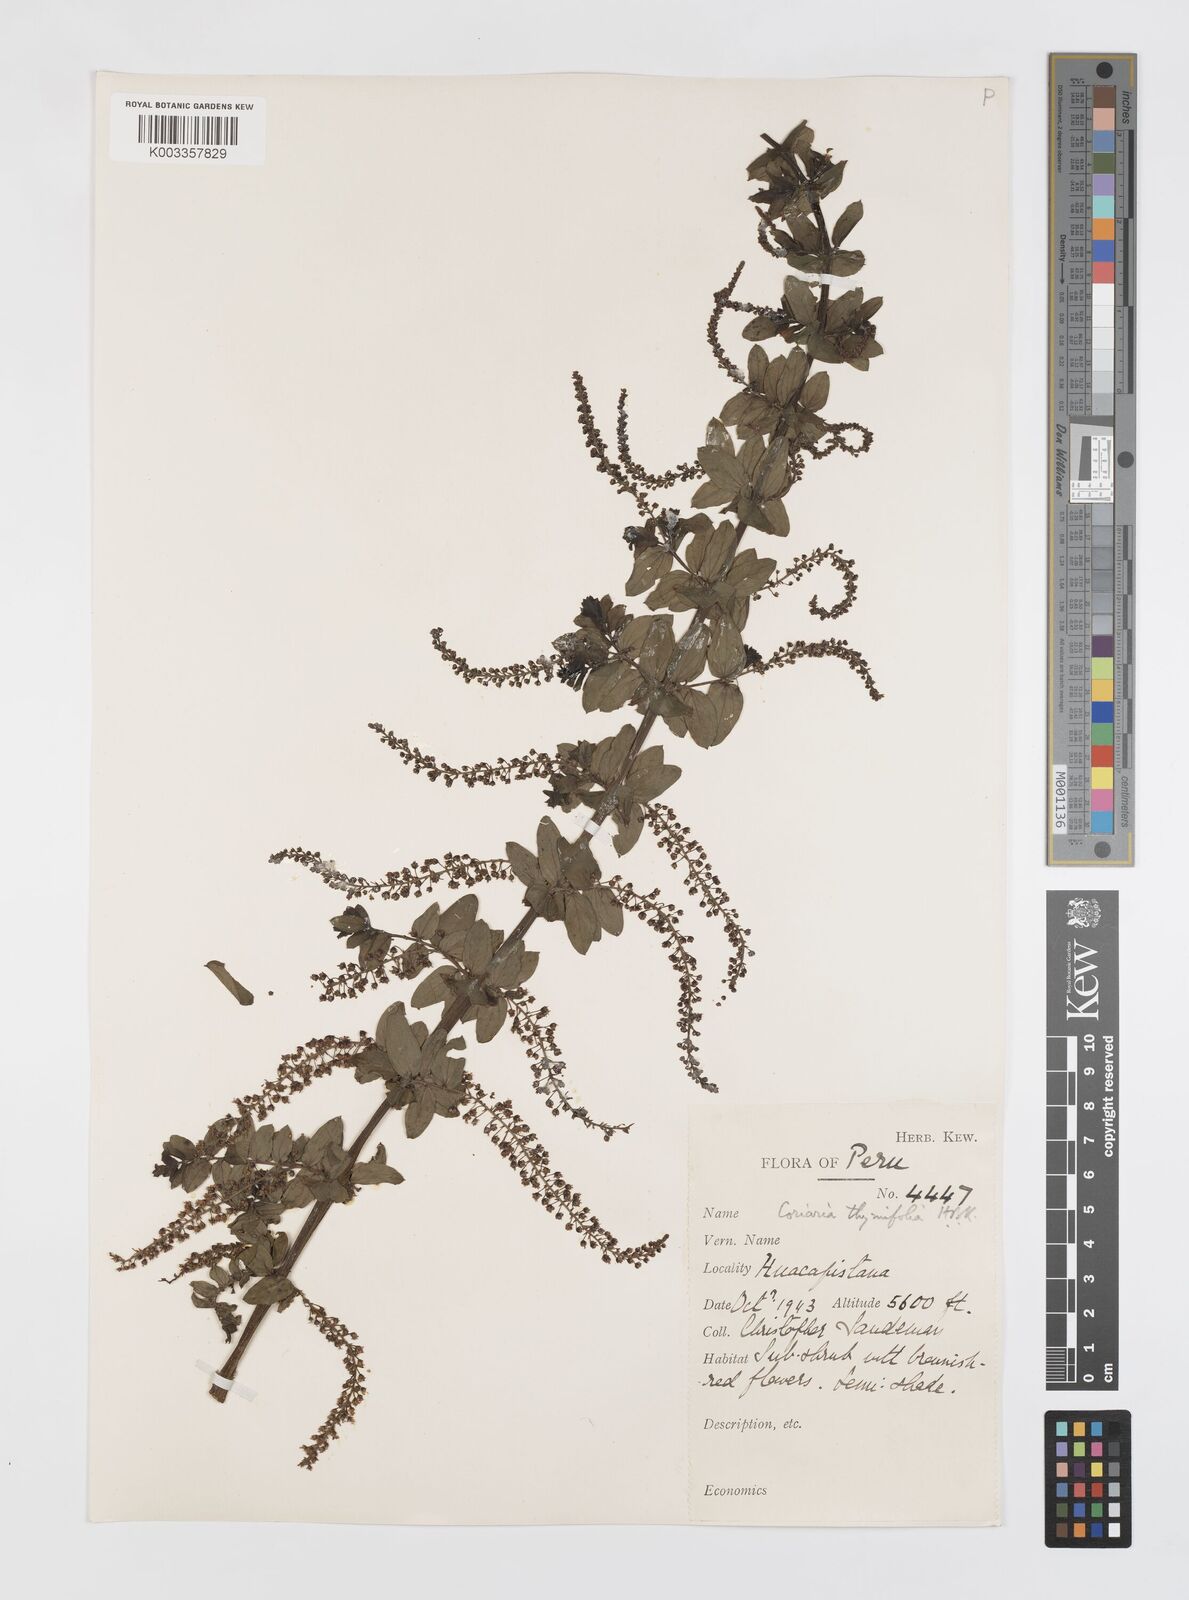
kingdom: Plantae
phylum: Tracheophyta
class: Magnoliopsida
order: Cucurbitales
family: Coriariaceae
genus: Coriaria
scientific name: Coriaria microphylla
